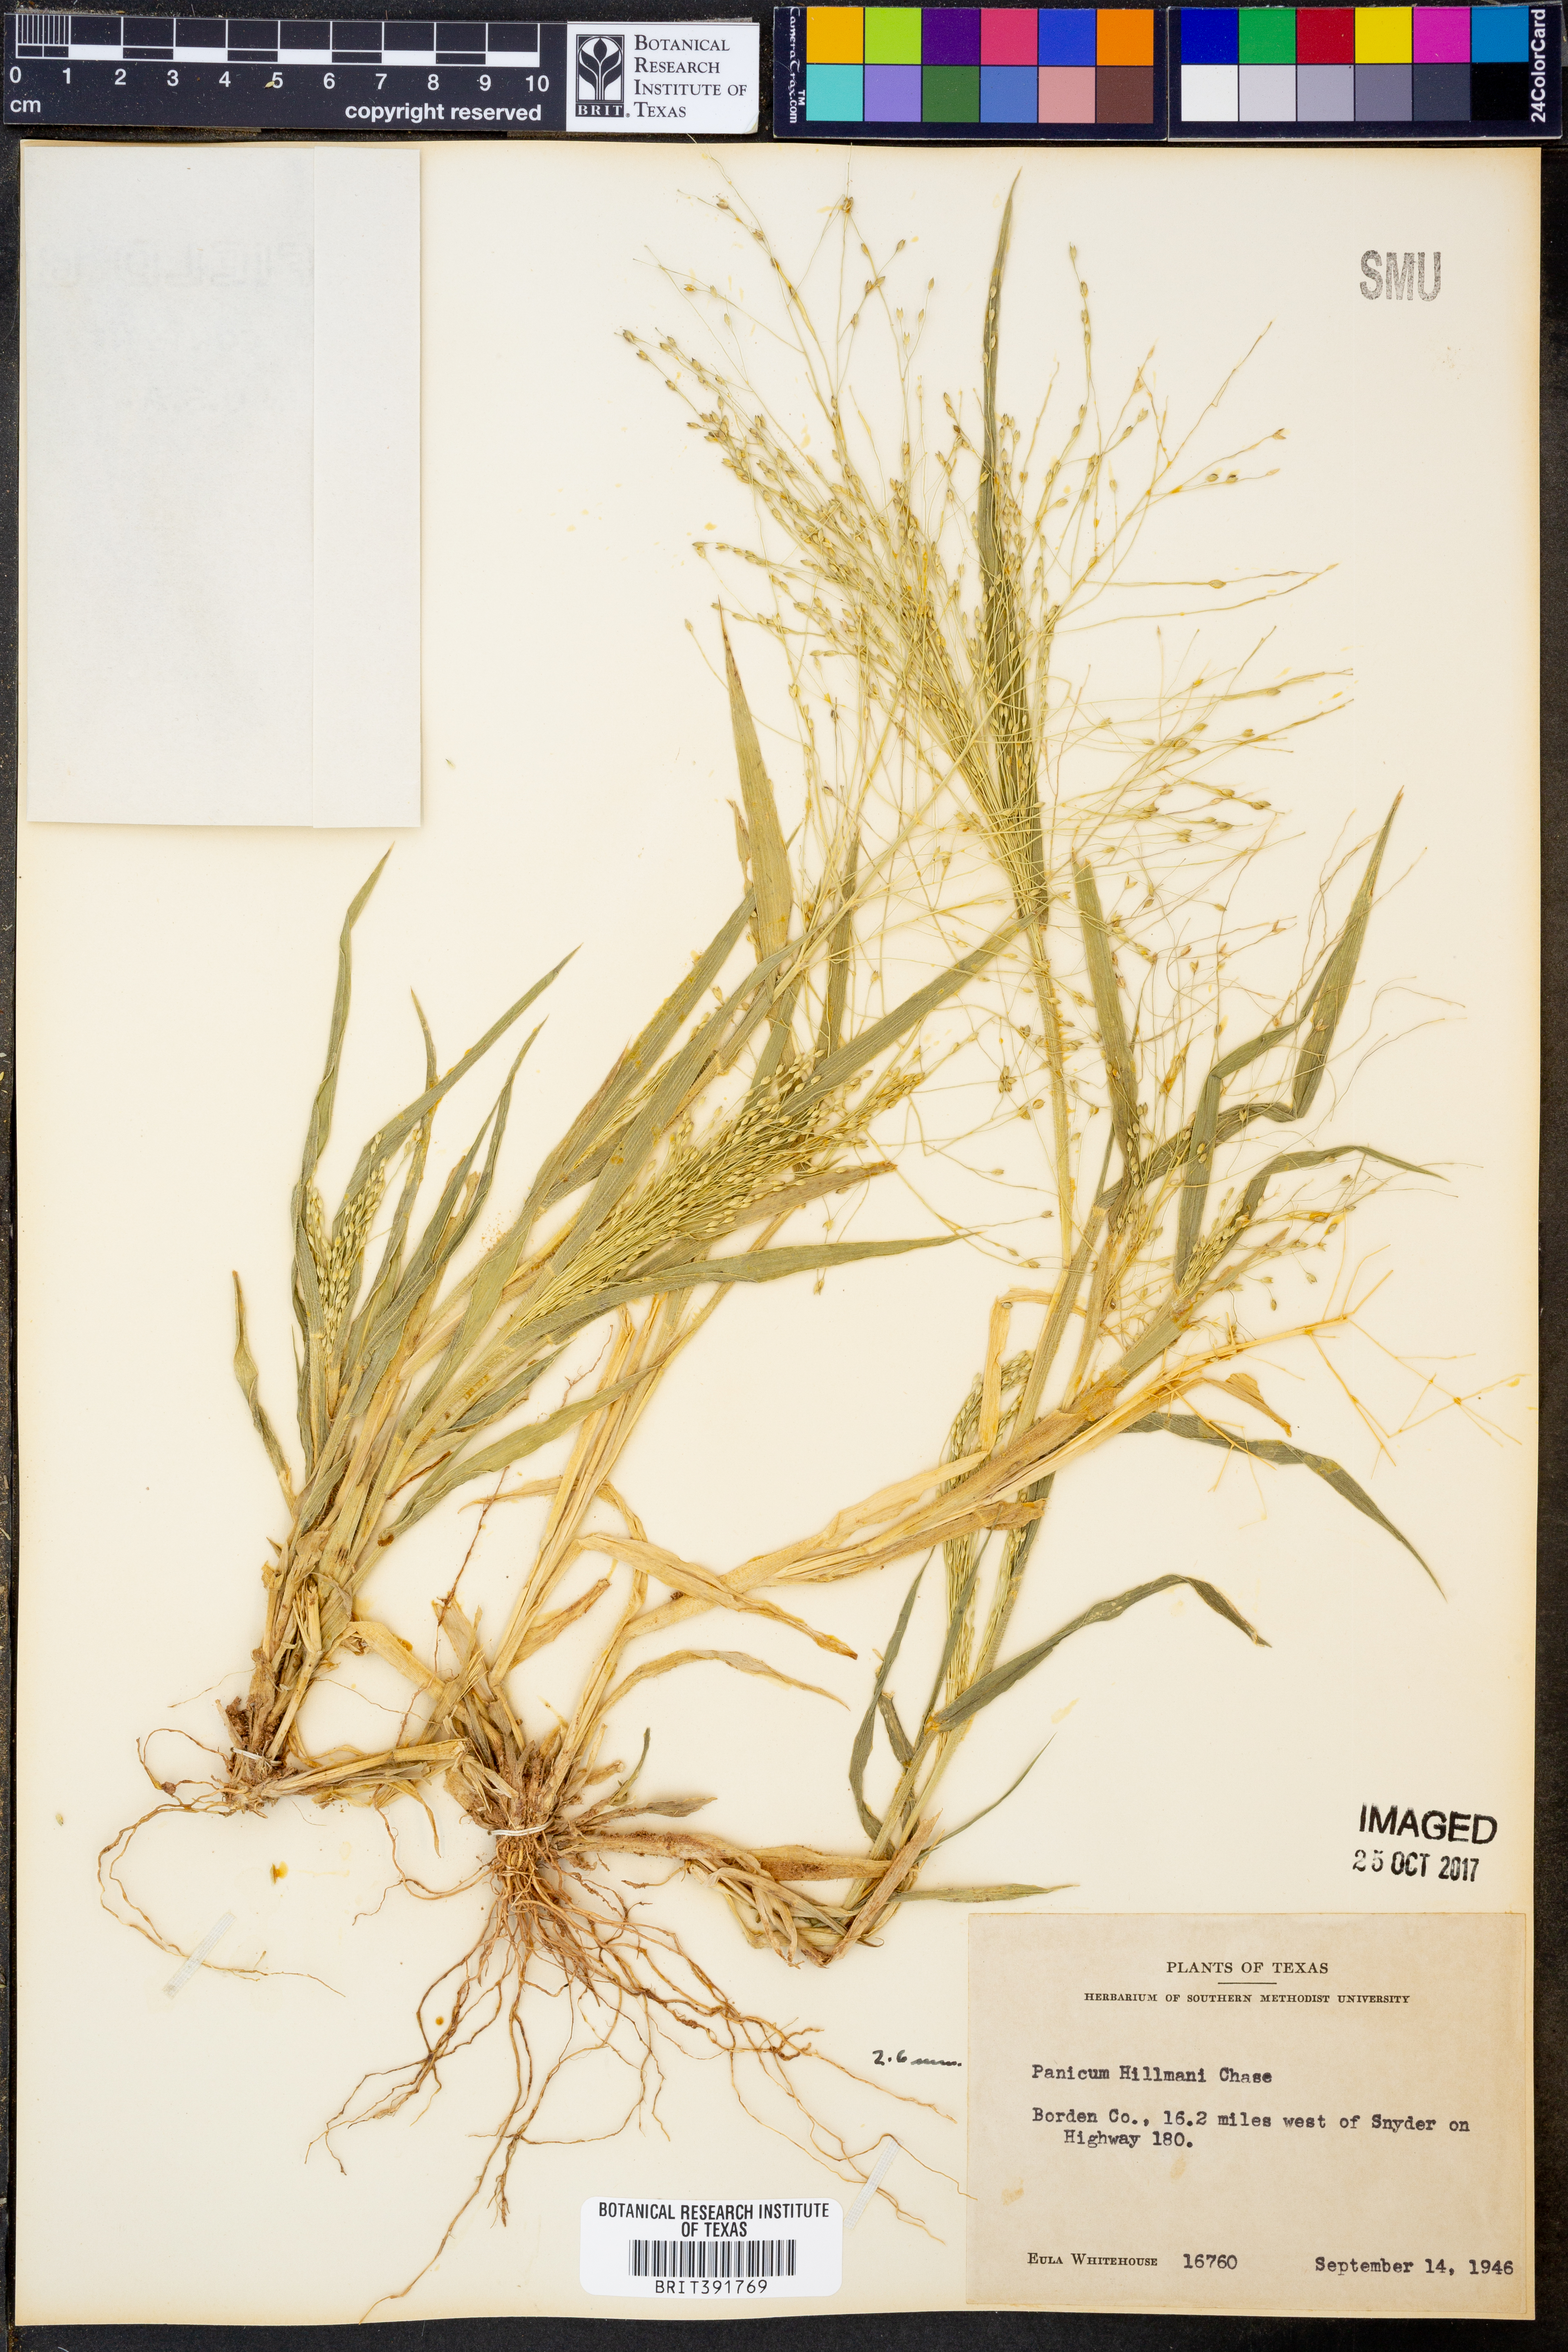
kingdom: Plantae
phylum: Tracheophyta
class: Liliopsida
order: Poales
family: Poaceae
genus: Panicum
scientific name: Panicum hillmanii
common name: Hillman's panicum
